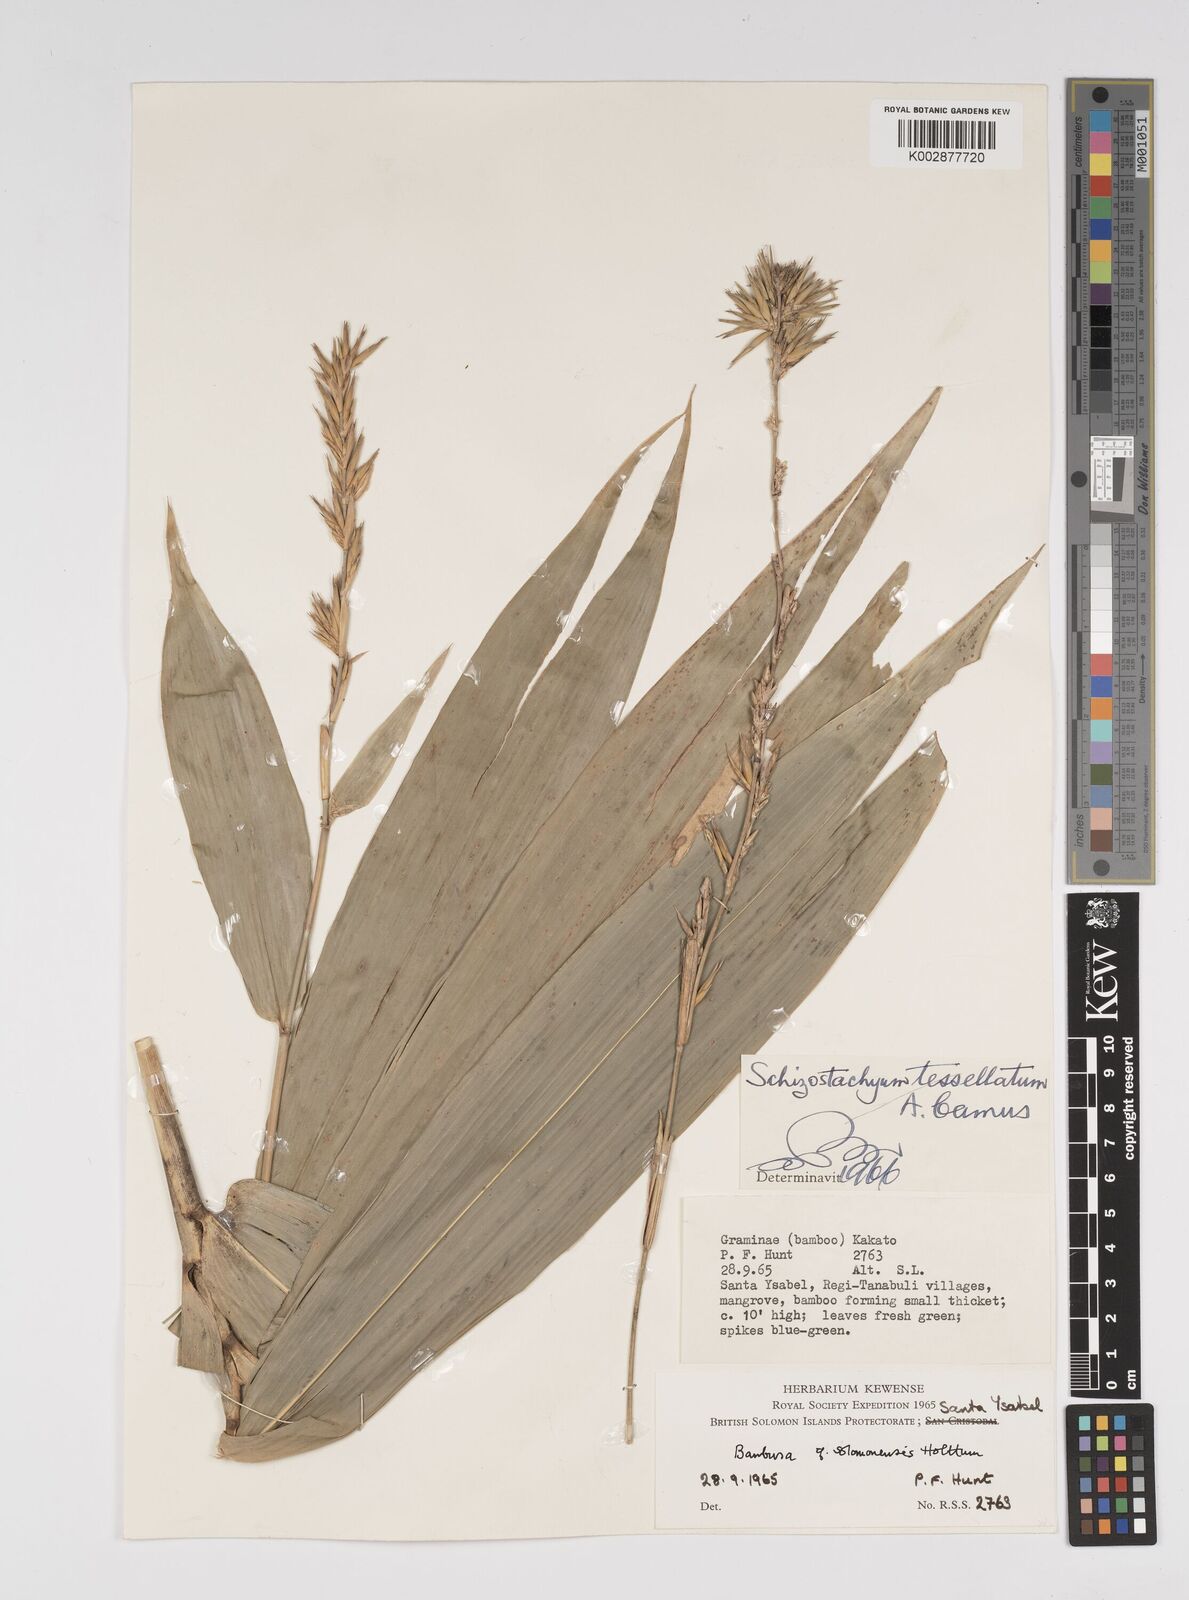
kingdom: Plantae
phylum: Tracheophyta
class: Liliopsida
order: Poales
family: Poaceae
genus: Bambusa
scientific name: Bambusa solomonensis
